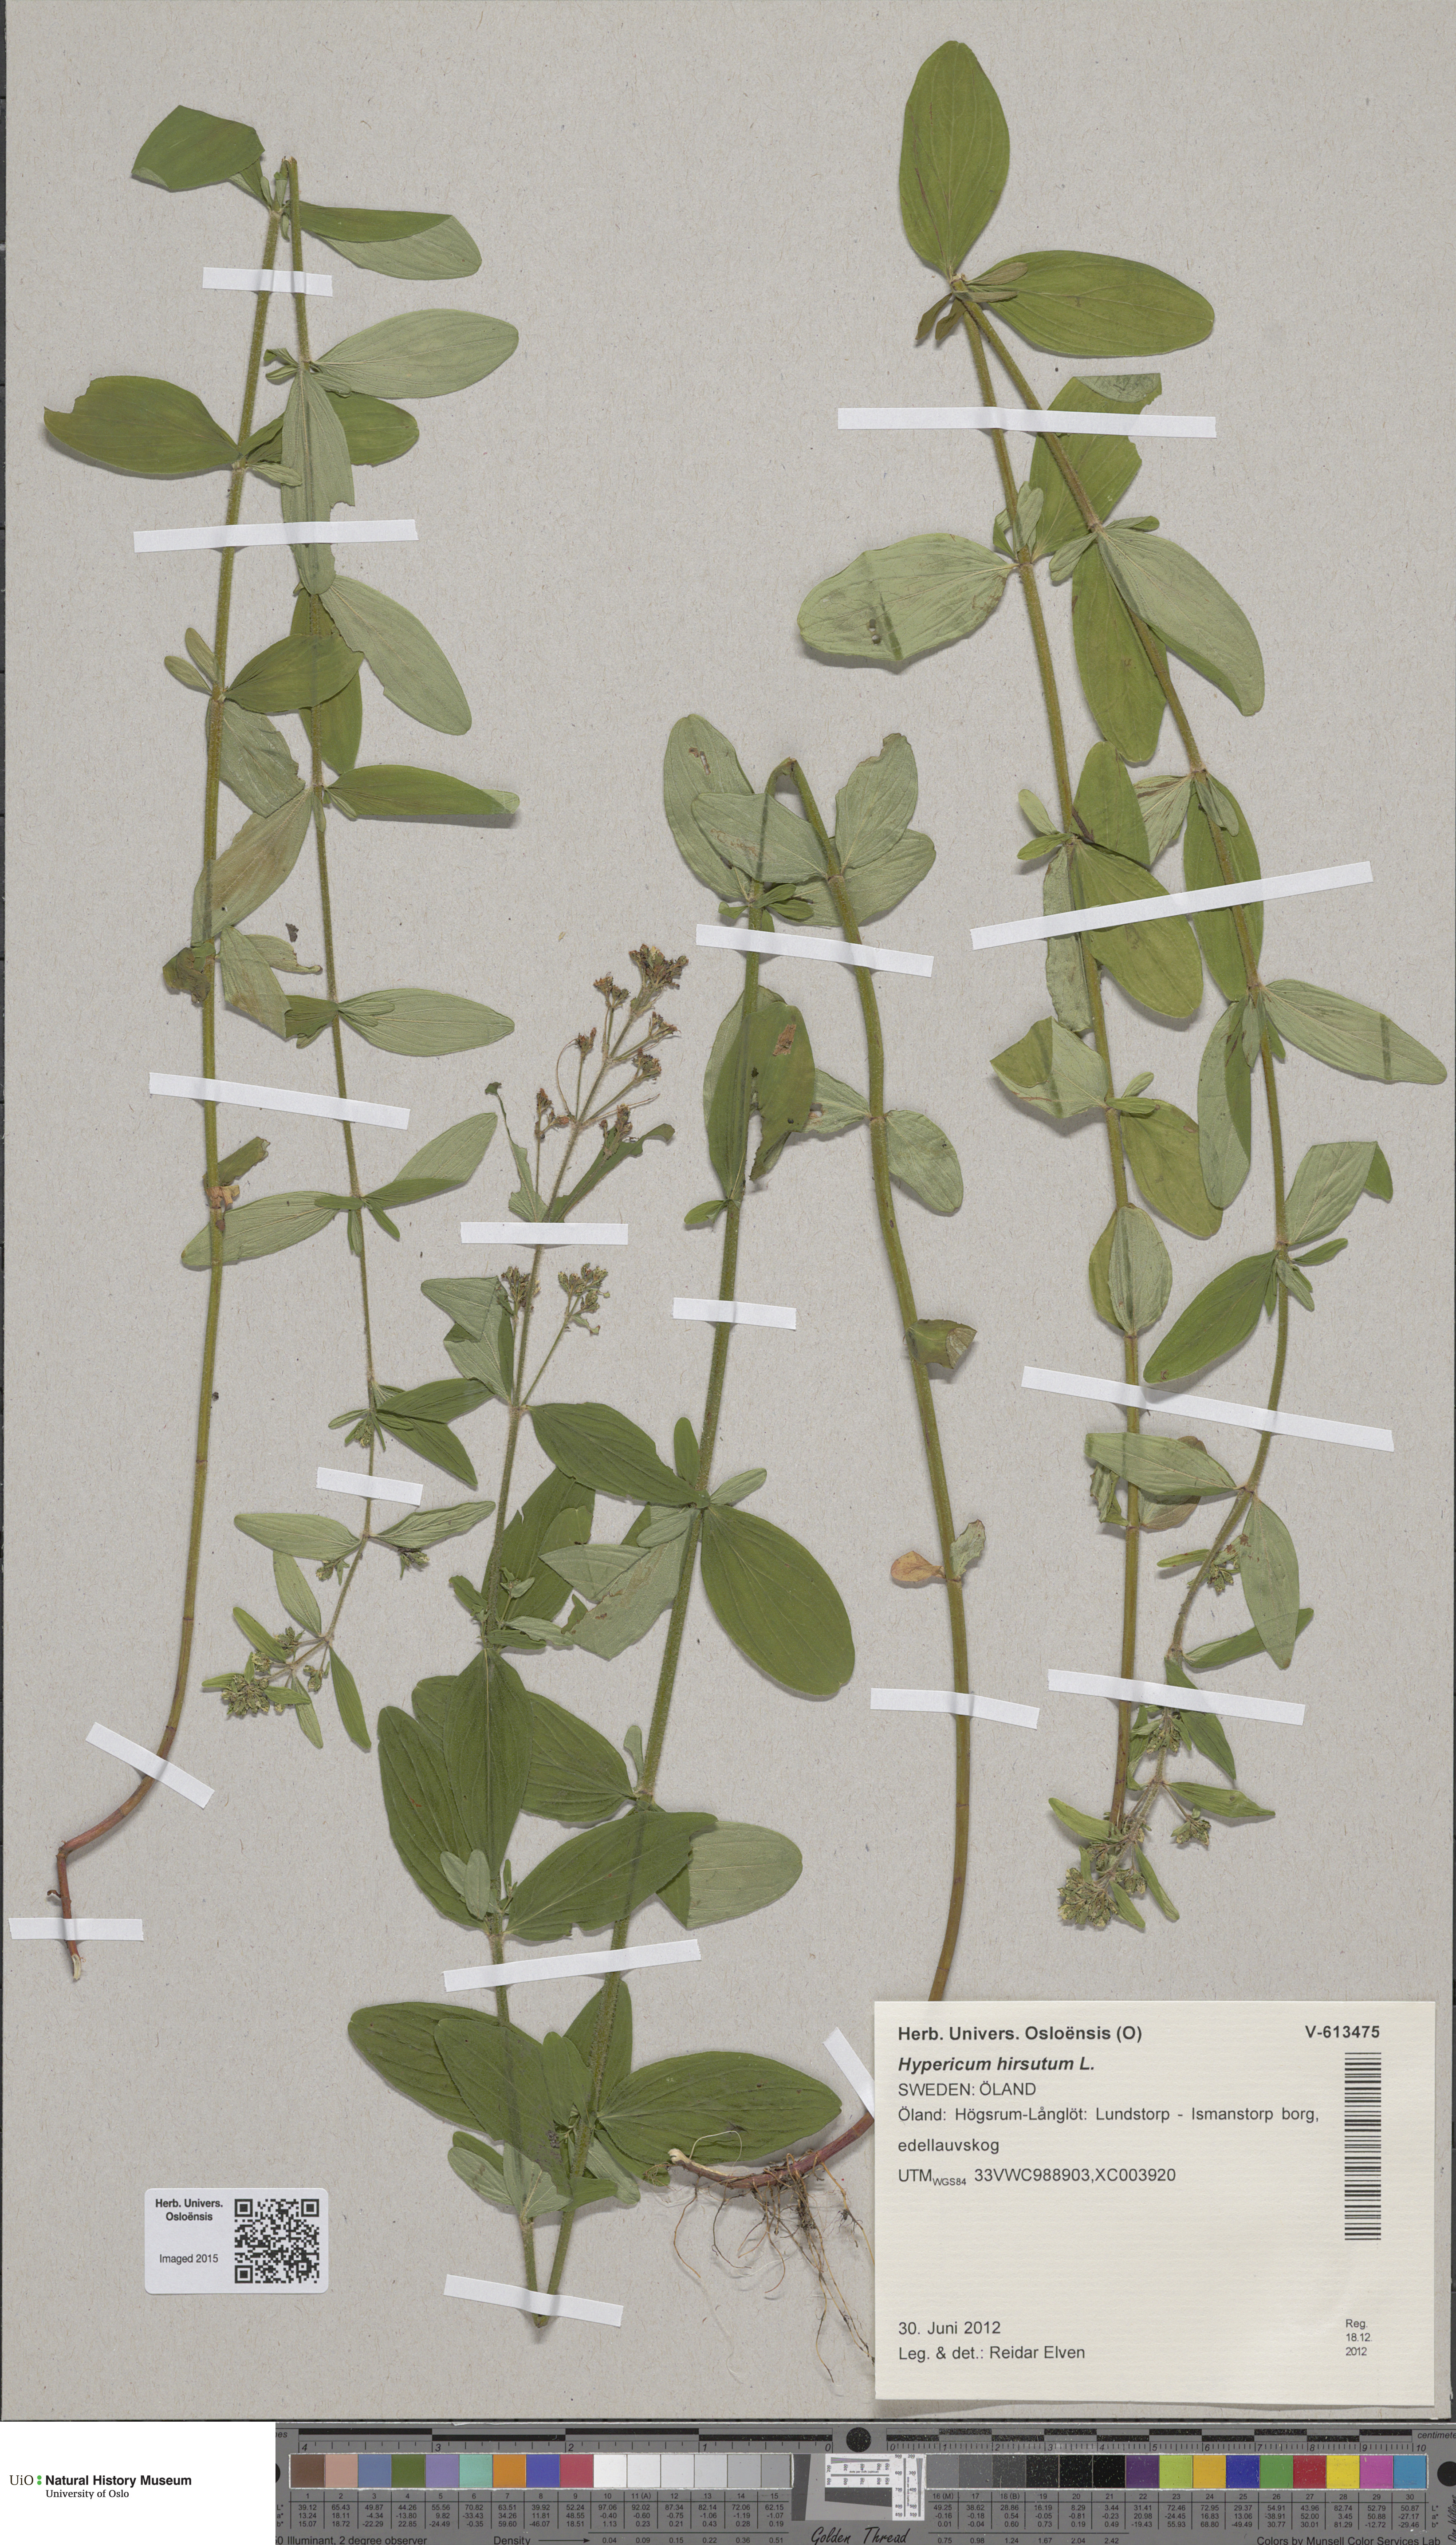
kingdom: Plantae
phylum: Tracheophyta
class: Magnoliopsida
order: Malpighiales
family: Hypericaceae
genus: Hypericum
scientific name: Hypericum hirsutum
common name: Hairy st. john's-wort
